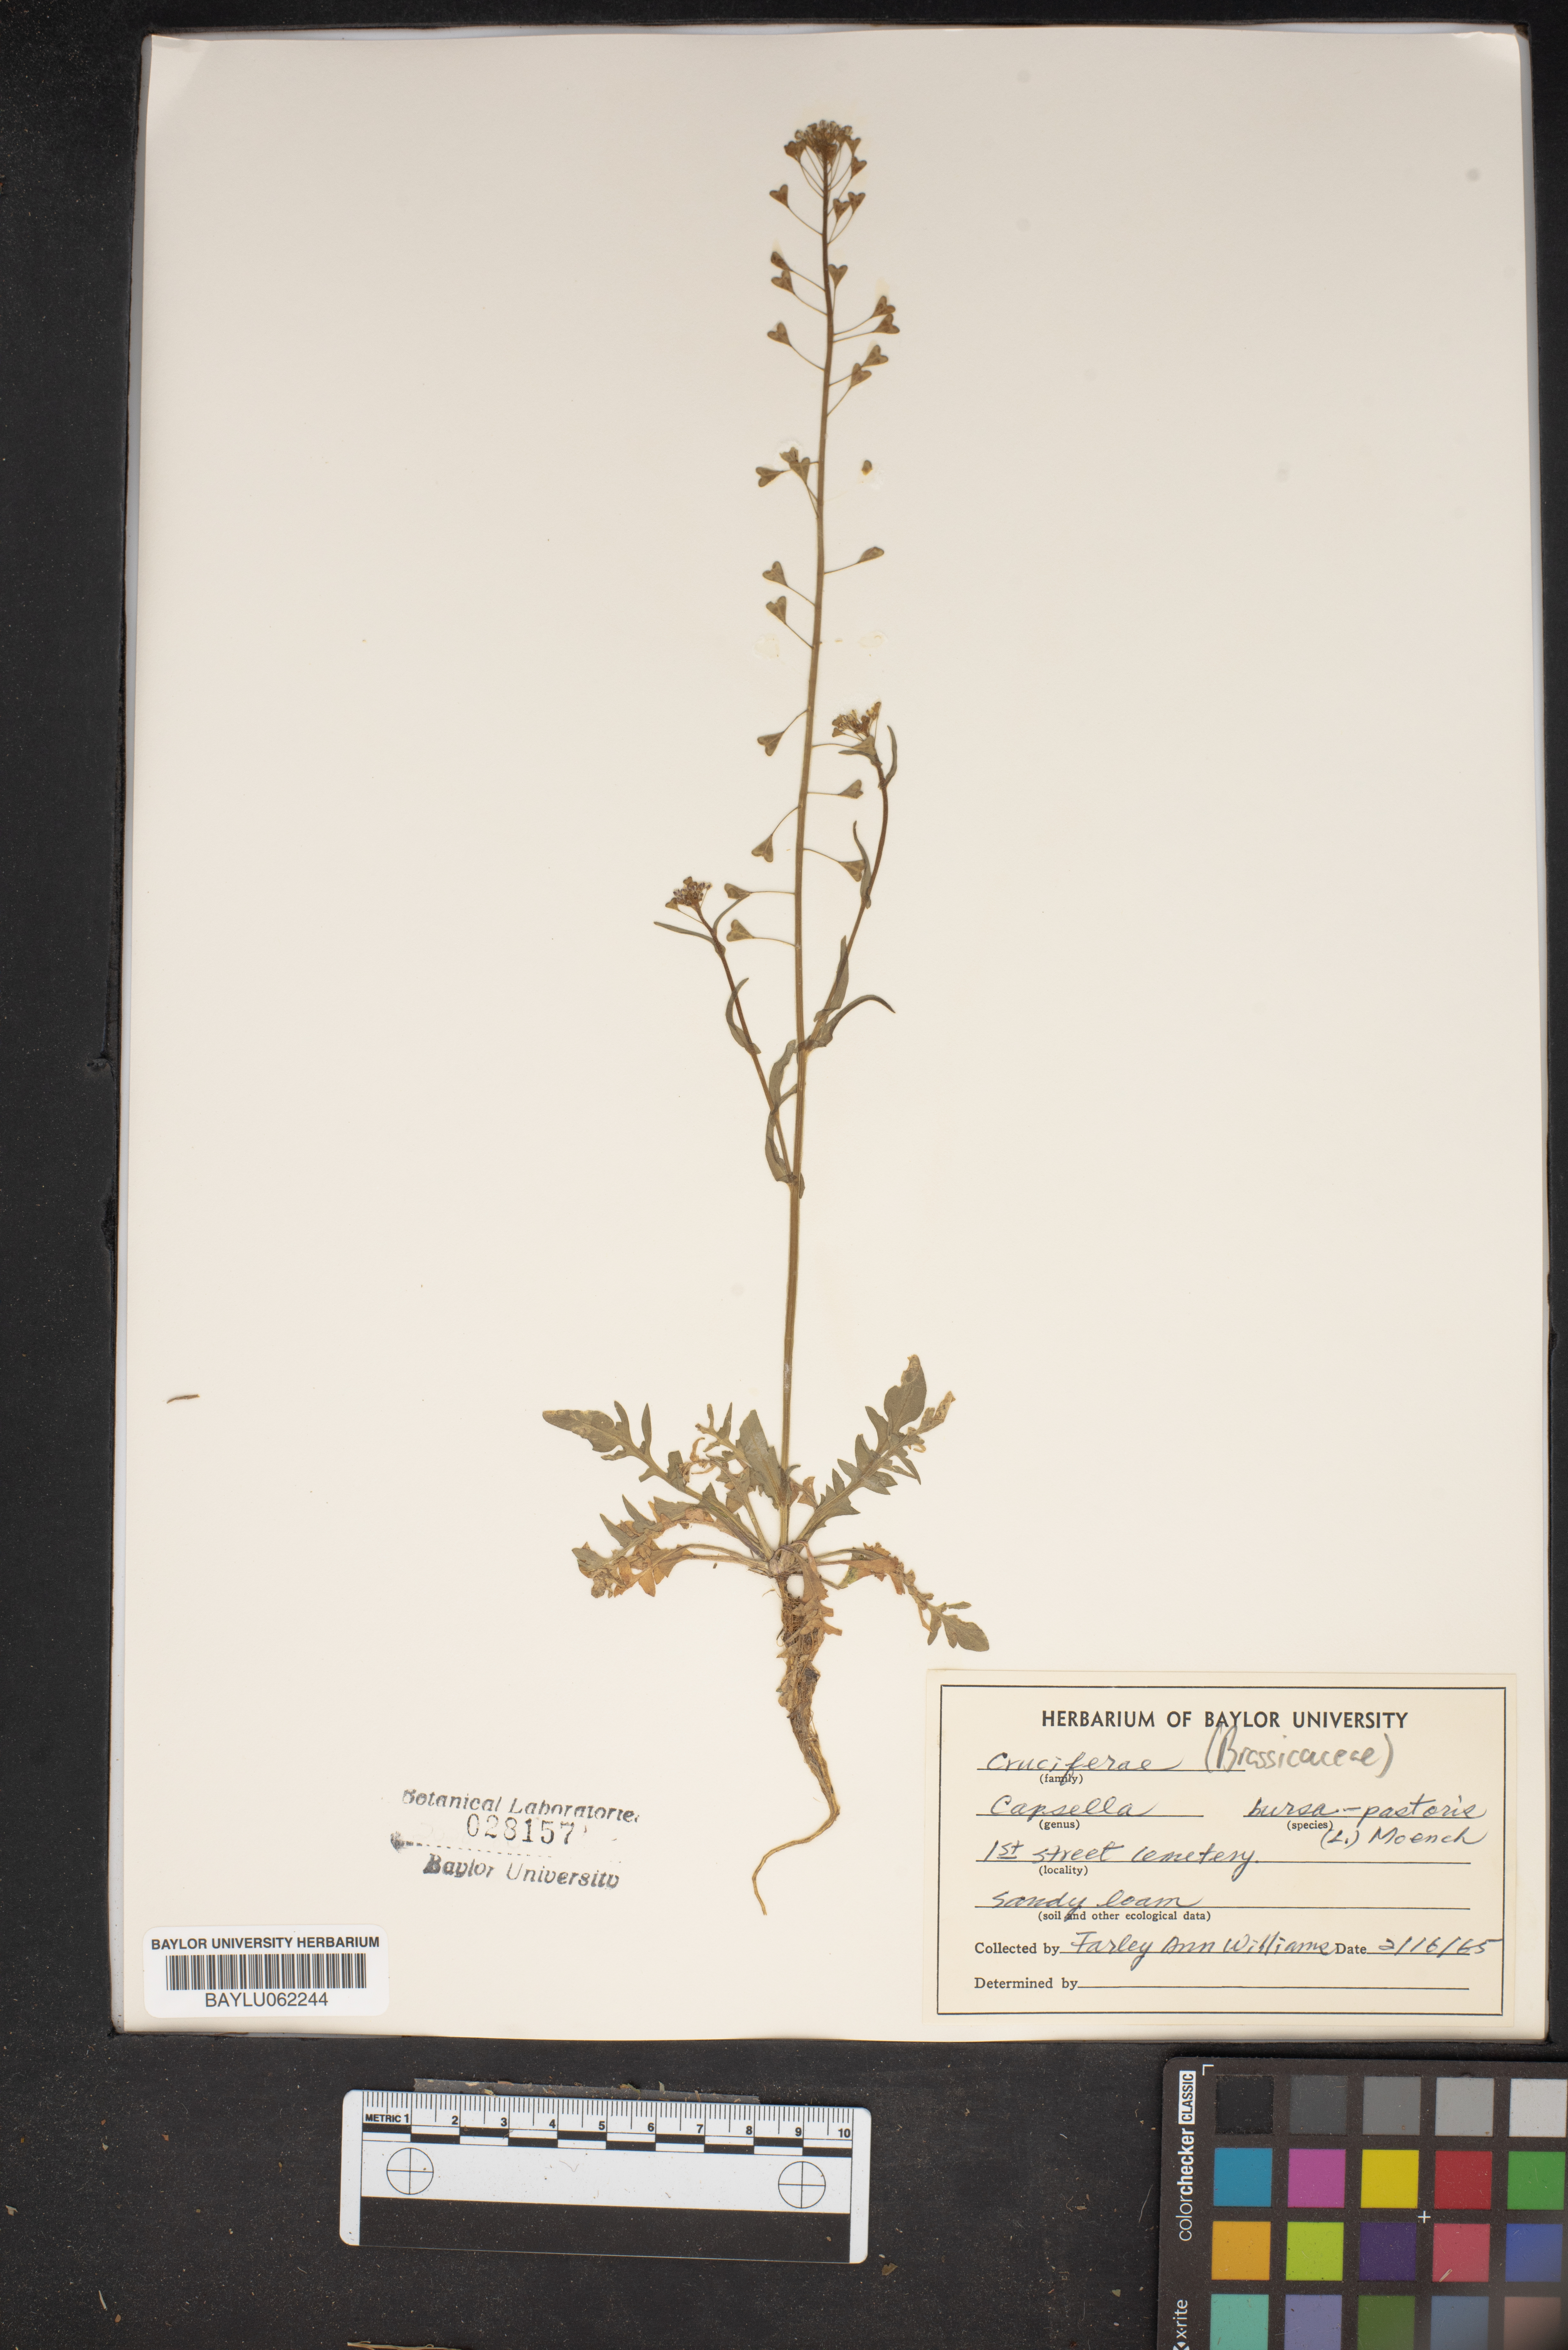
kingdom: Plantae
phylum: Tracheophyta
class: Magnoliopsida
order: Brassicales
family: Brassicaceae
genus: Capsella
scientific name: Capsella bursa-pastoris
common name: Shepherd's purse
